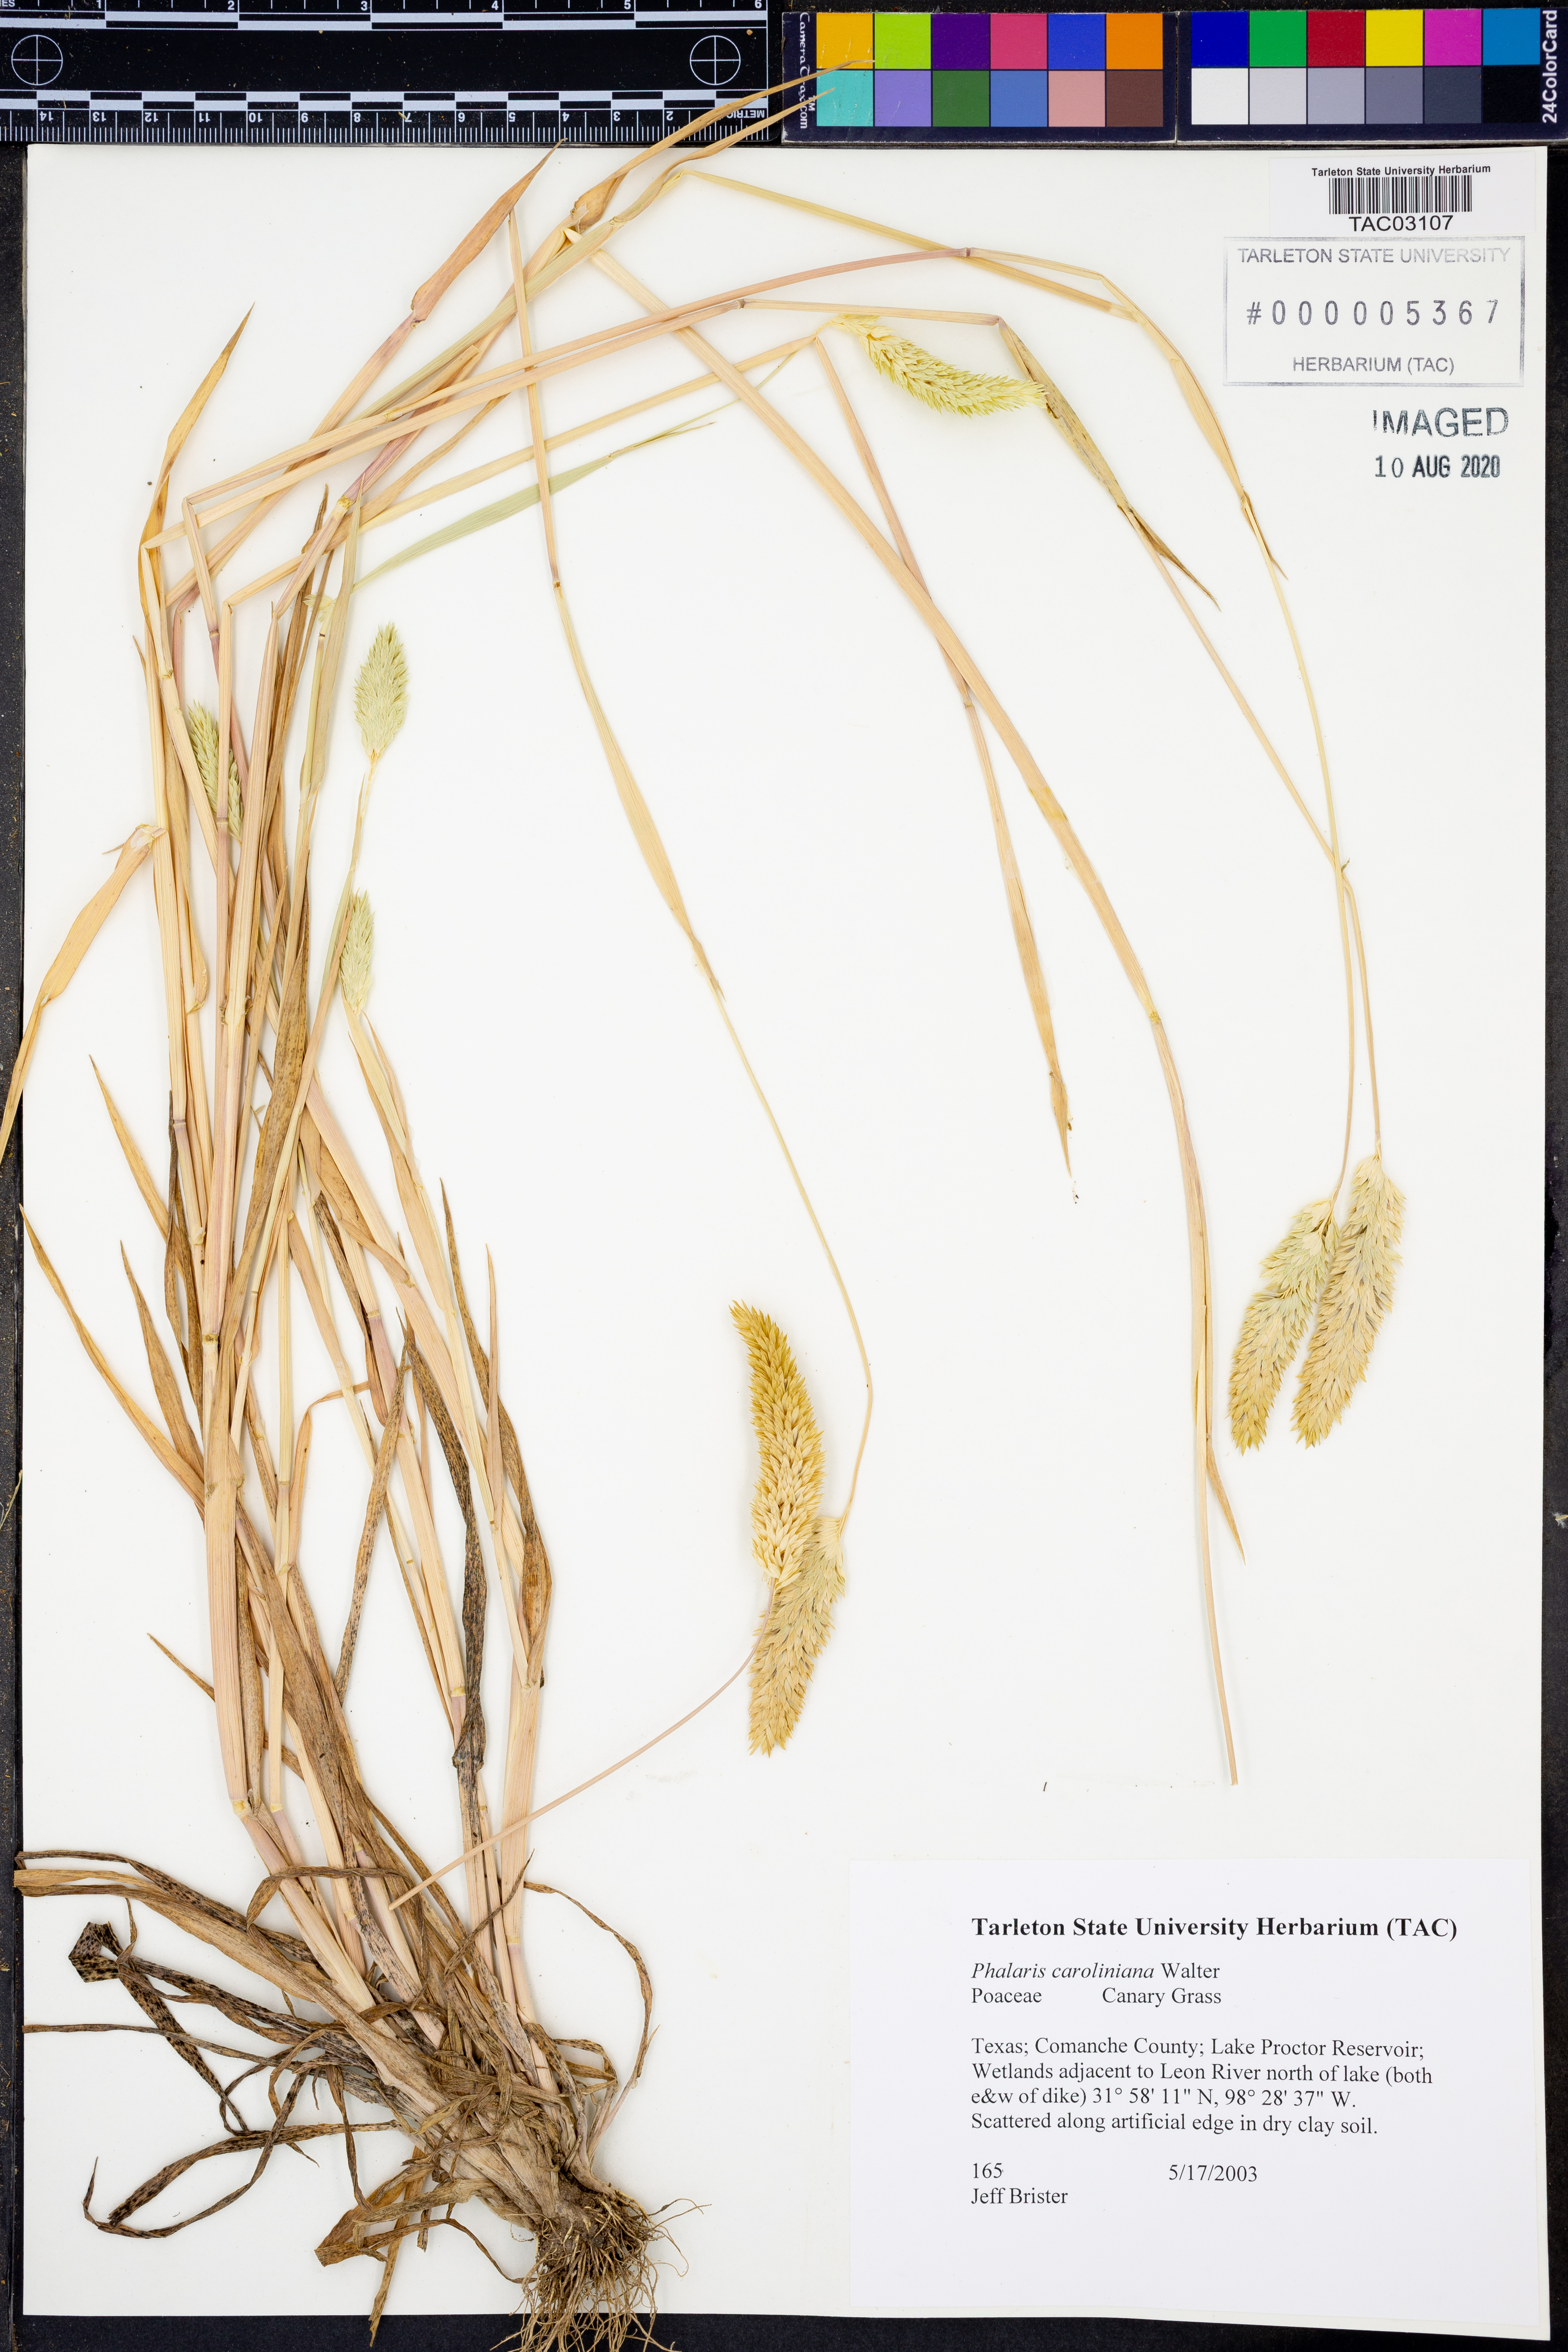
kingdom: Plantae
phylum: Tracheophyta
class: Liliopsida
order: Poales
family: Poaceae
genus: Phalaris
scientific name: Phalaris caroliniana
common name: May grass
